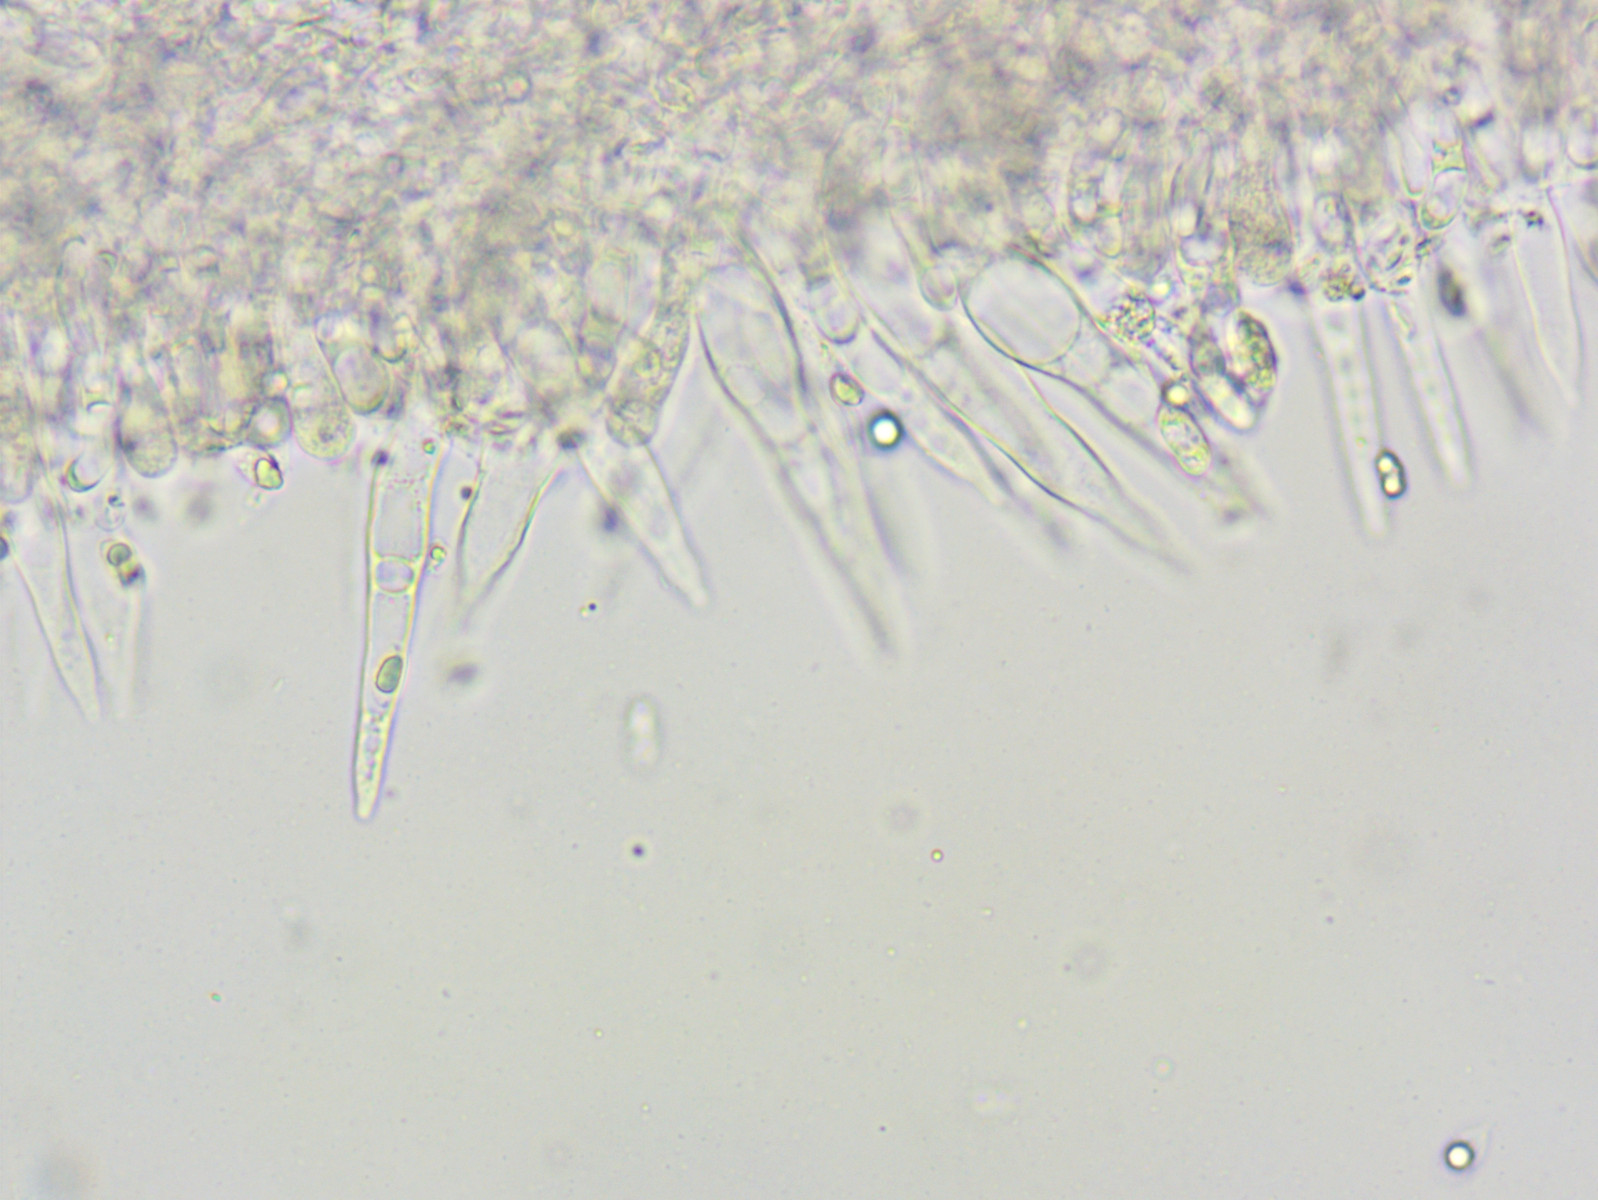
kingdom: Fungi
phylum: Basidiomycota
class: Agaricomycetes
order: Agaricales
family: Mycenaceae
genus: Mycena
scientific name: Mycena galopus
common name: hvidmælket huesvamp
